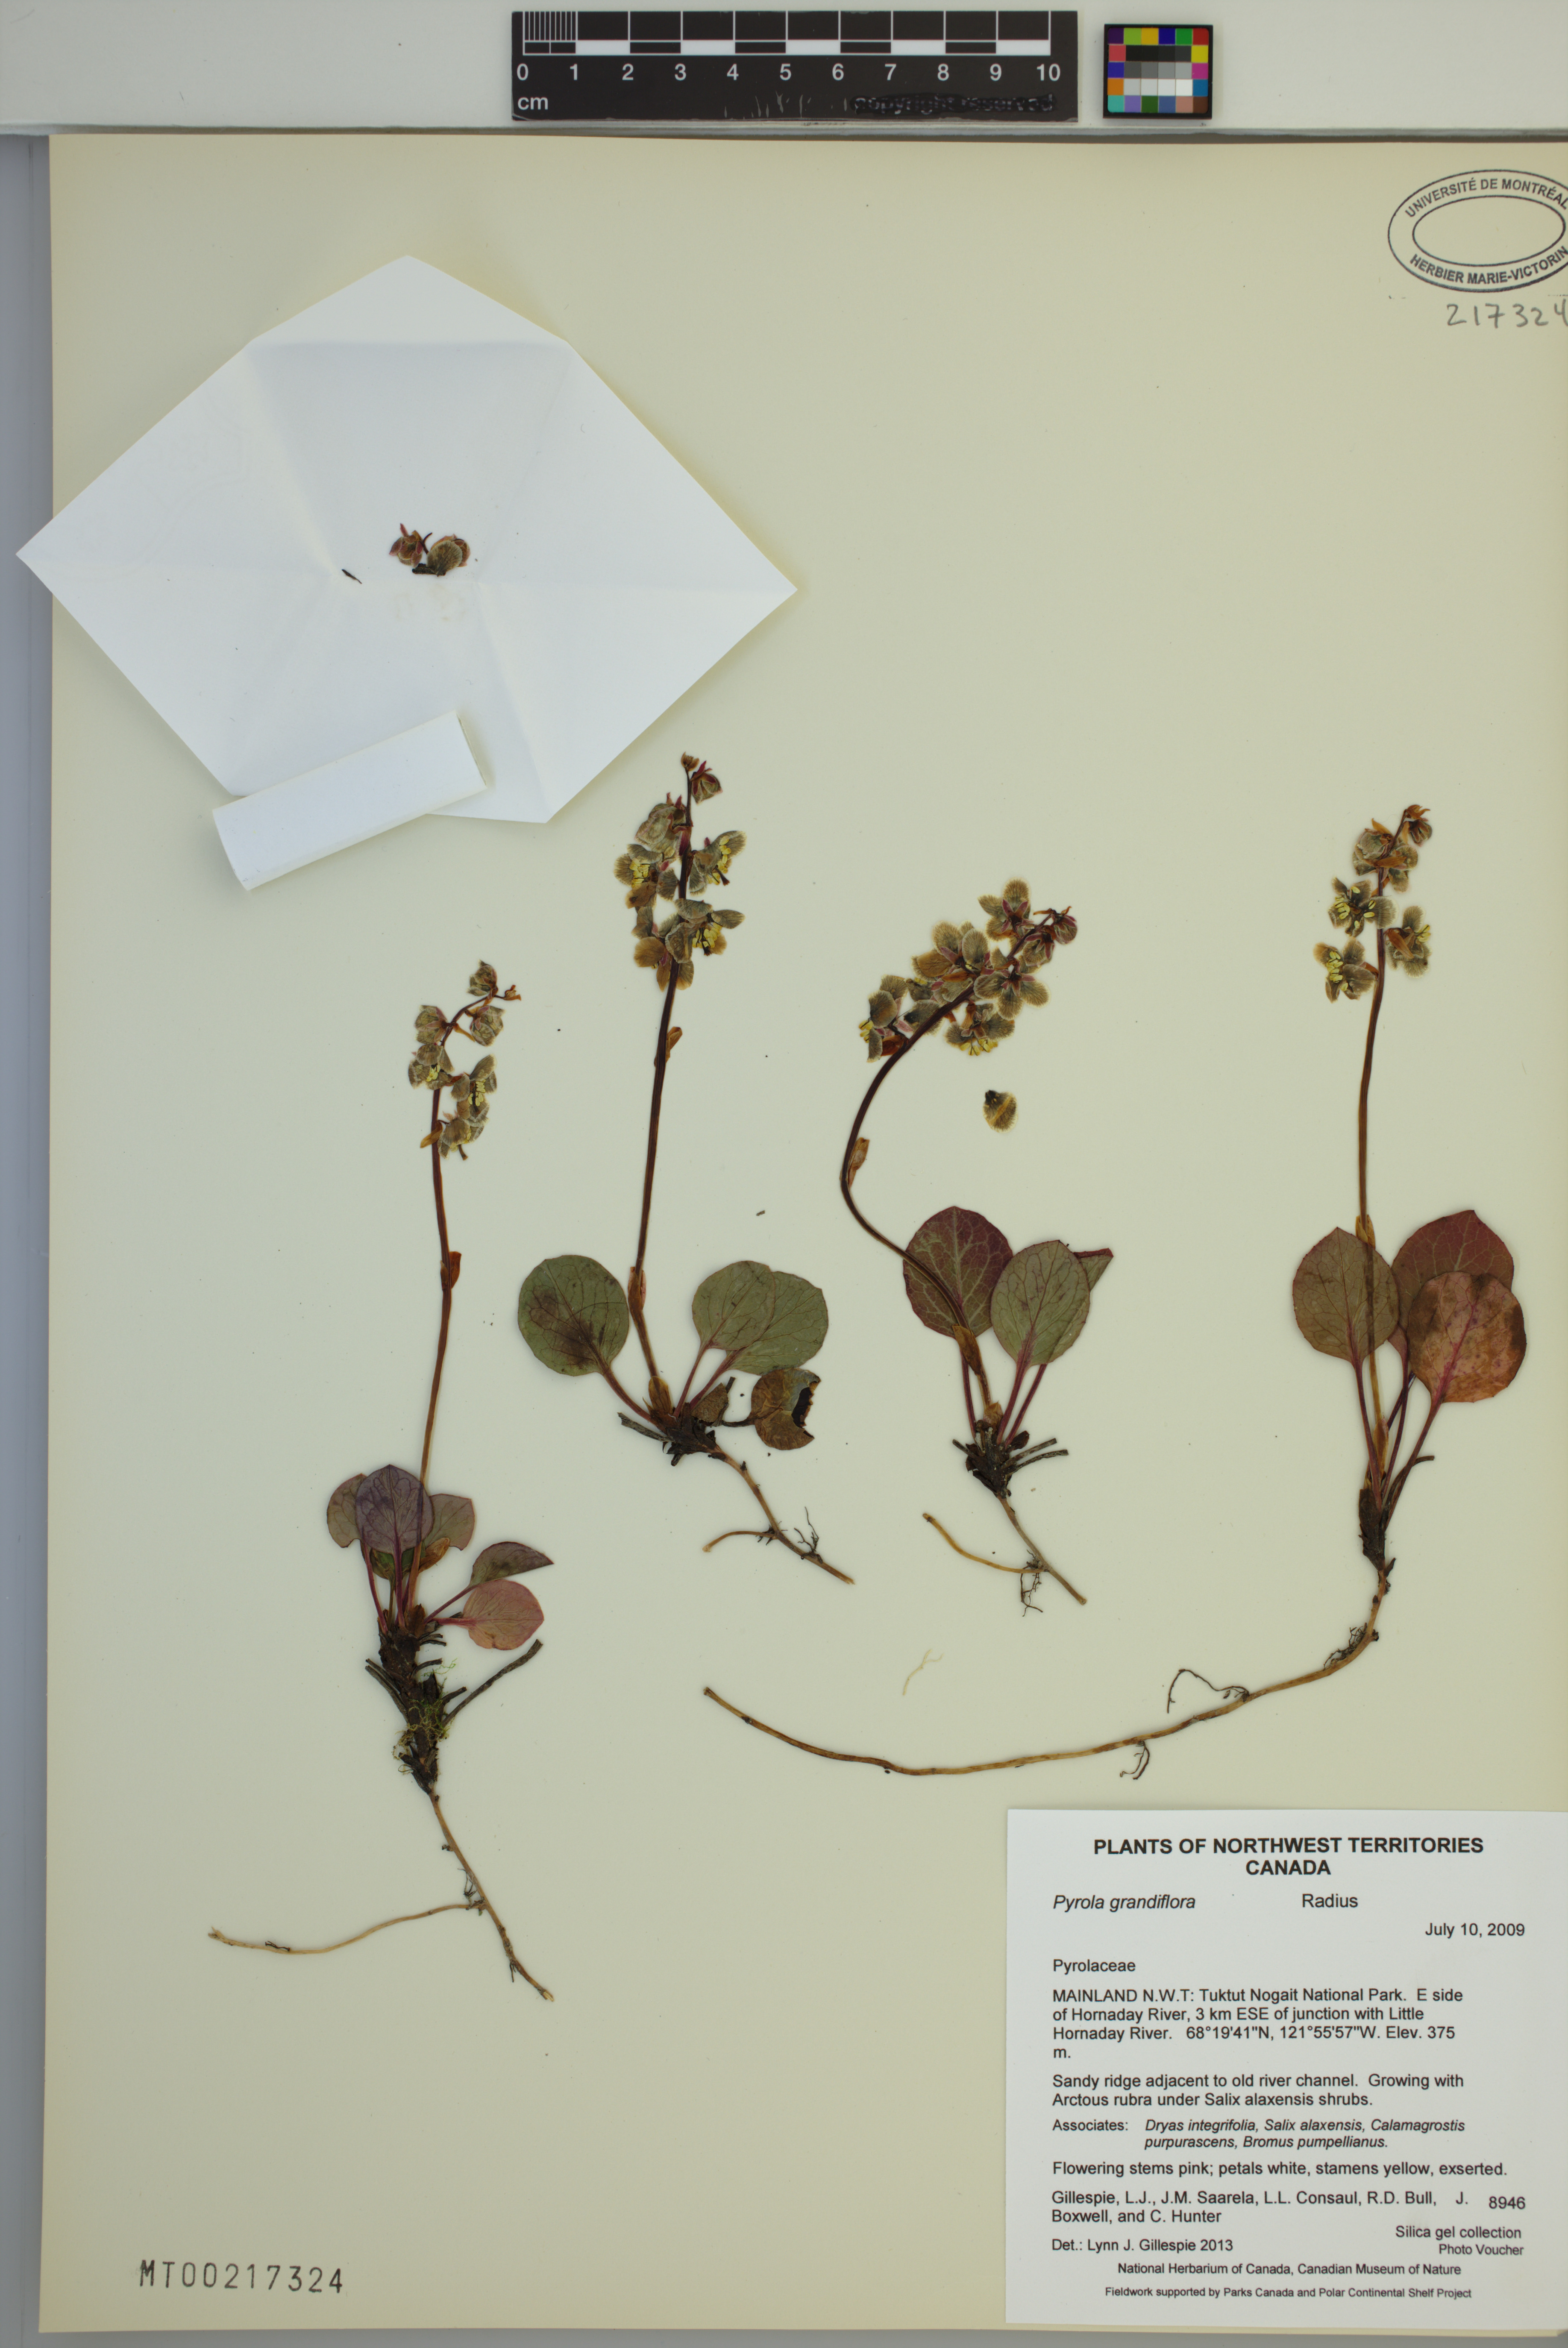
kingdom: Plantae
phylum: Tracheophyta
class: Magnoliopsida
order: Ericales
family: Ericaceae
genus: Pyrola
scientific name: Pyrola grandiflora
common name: Arctic pyrola
